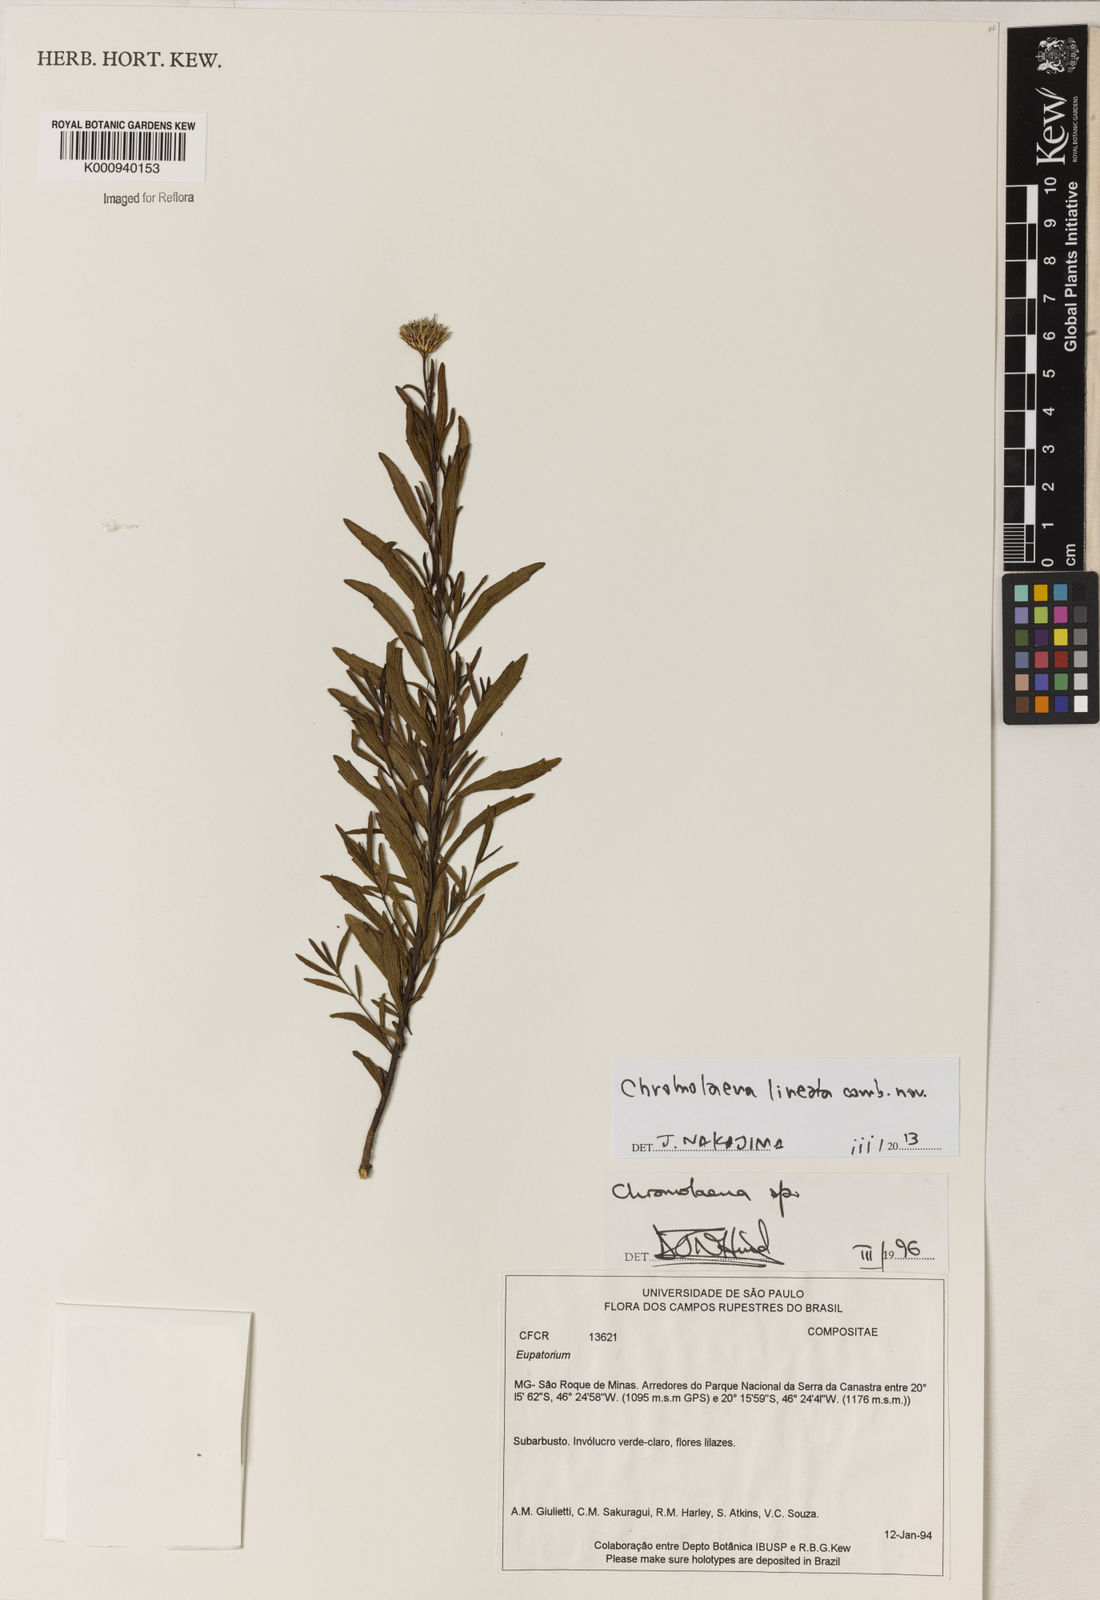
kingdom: Plantae
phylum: Tracheophyta
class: Magnoliopsida
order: Asterales
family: Asteraceae
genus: Chromolaena
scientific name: Chromolaena
